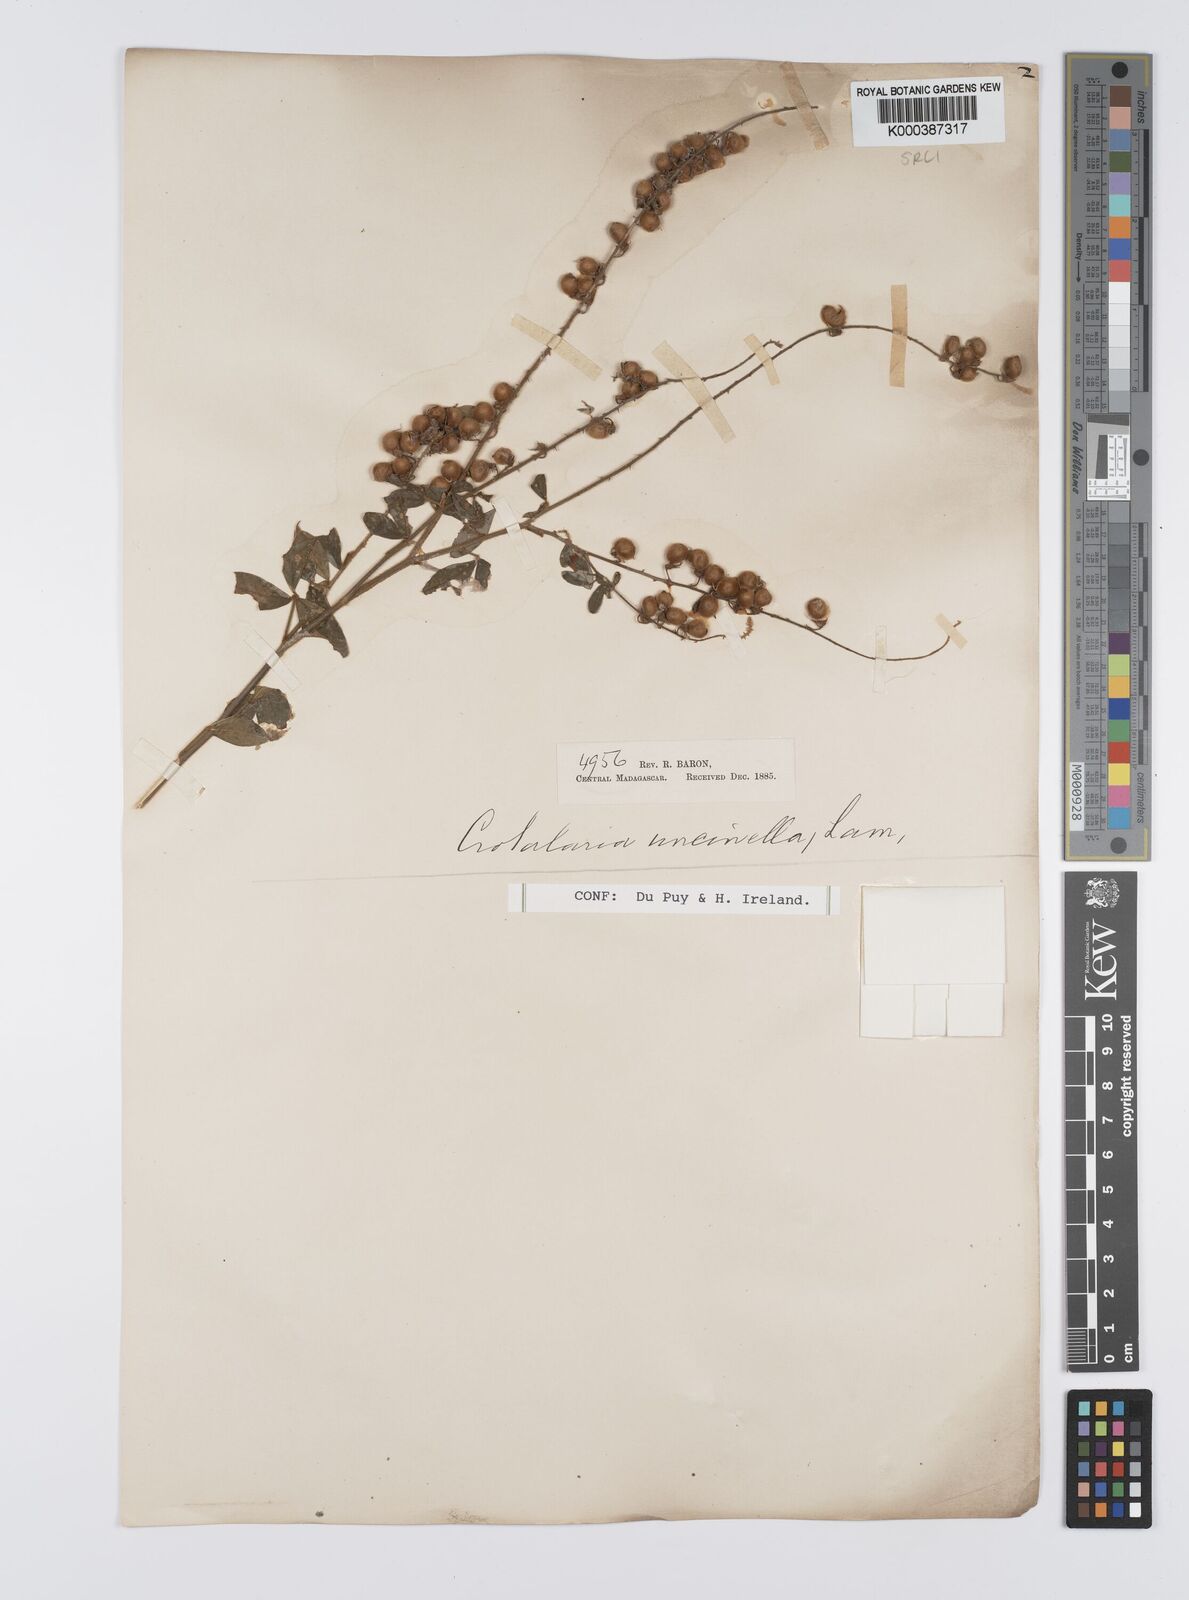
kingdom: Plantae
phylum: Tracheophyta
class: Magnoliopsida
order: Fabales
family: Fabaceae
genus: Crotalaria
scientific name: Crotalaria uncinella
